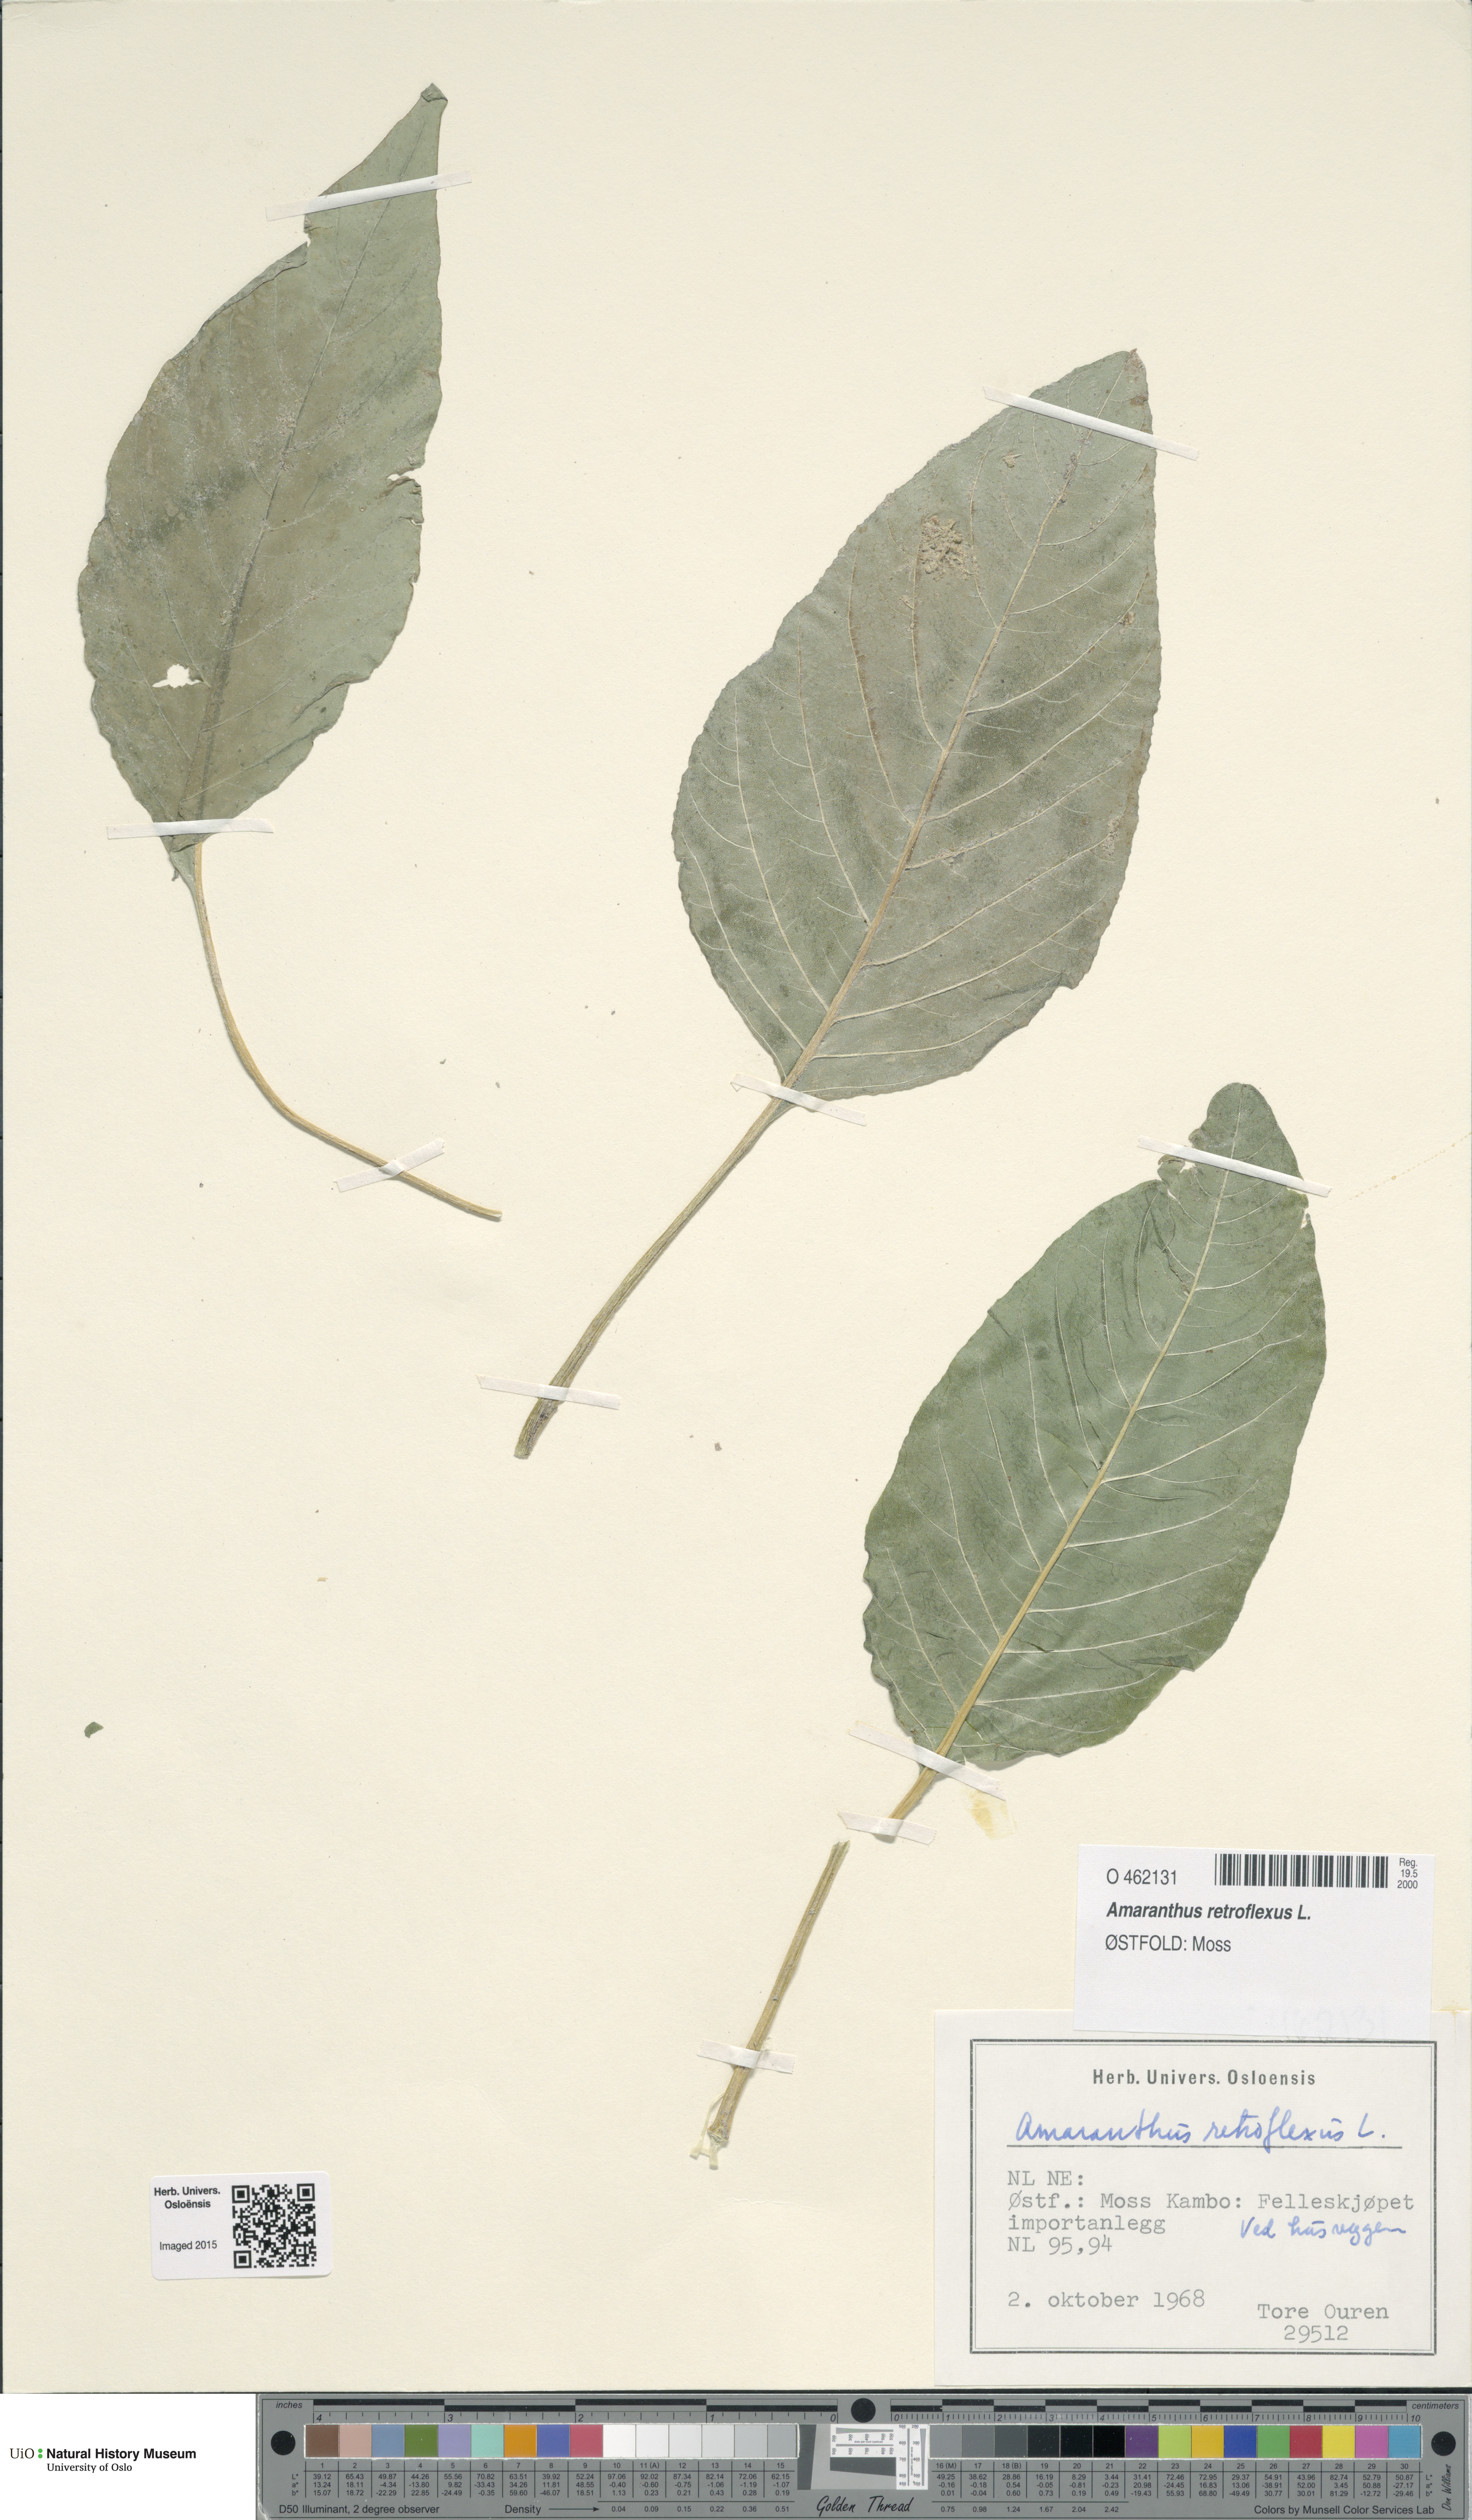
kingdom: Plantae
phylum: Tracheophyta
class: Magnoliopsida
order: Caryophyllales
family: Amaranthaceae
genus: Amaranthus
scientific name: Amaranthus retroflexus
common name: Redroot amaranth
